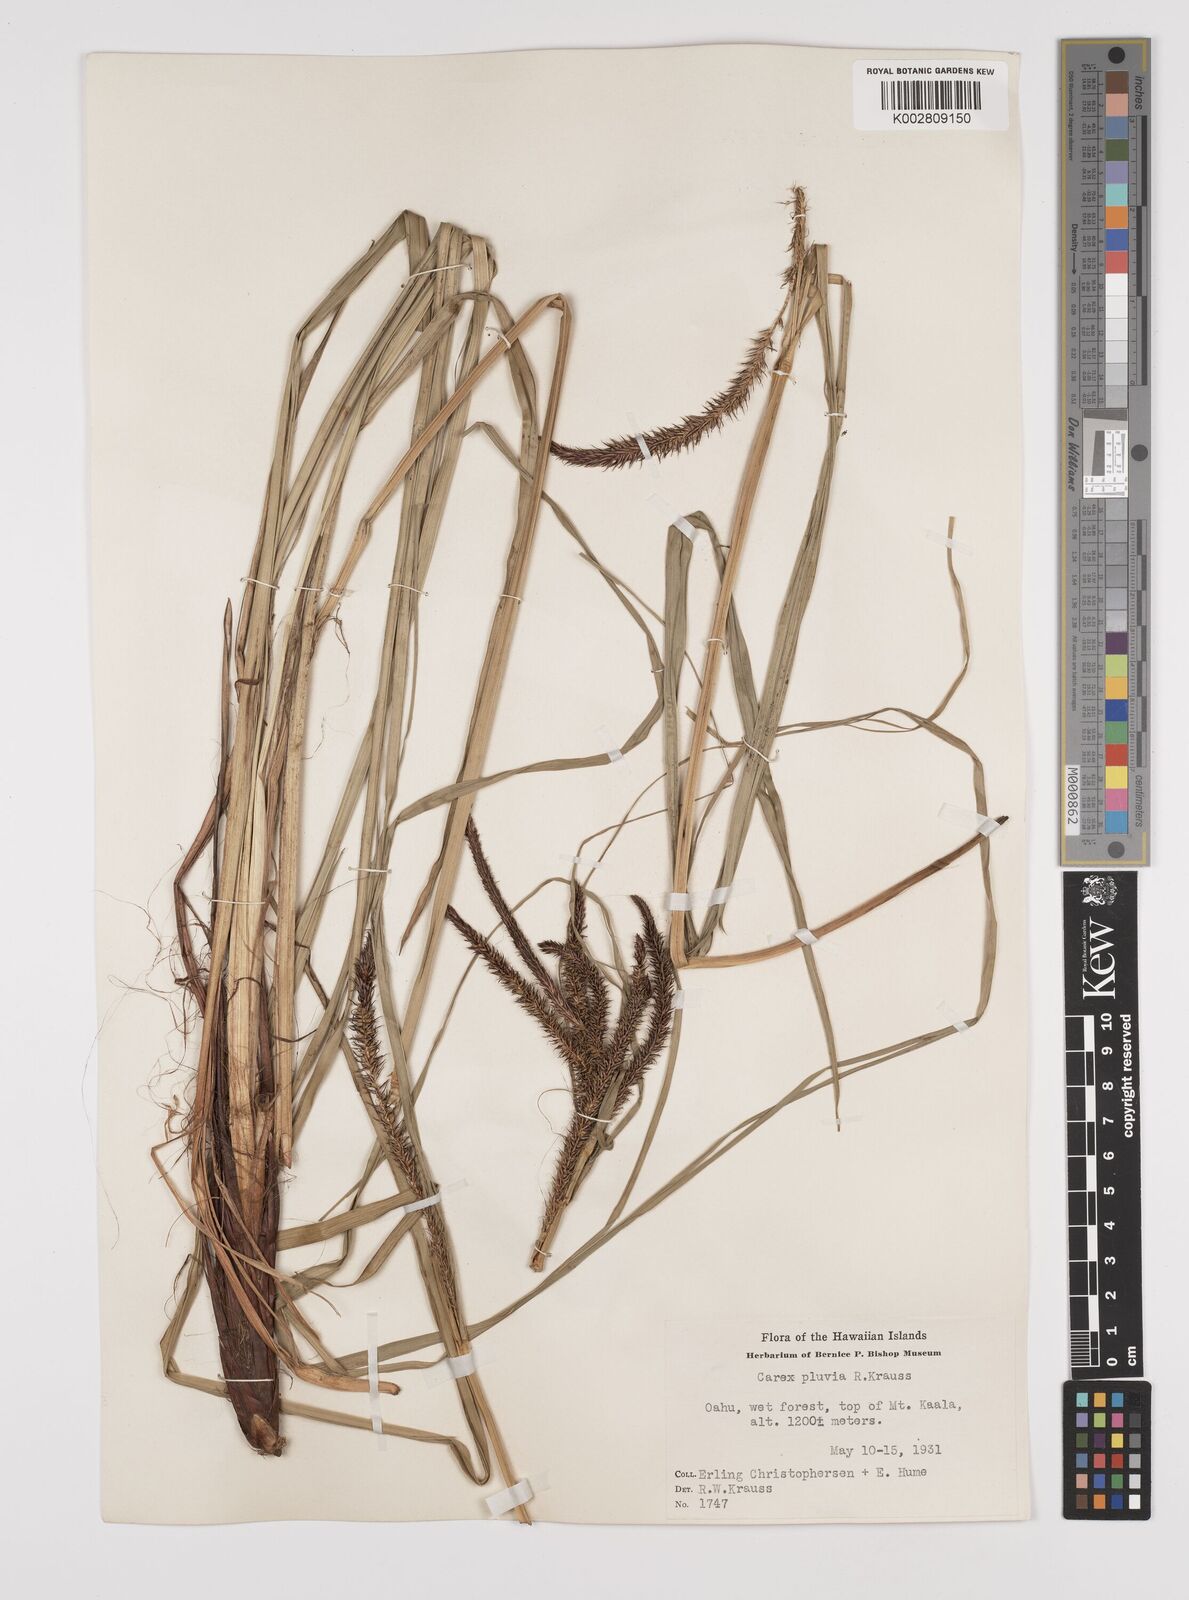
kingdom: Plantae
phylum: Tracheophyta
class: Liliopsida
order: Poales
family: Cyperaceae
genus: Carex
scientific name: Carex alligata
